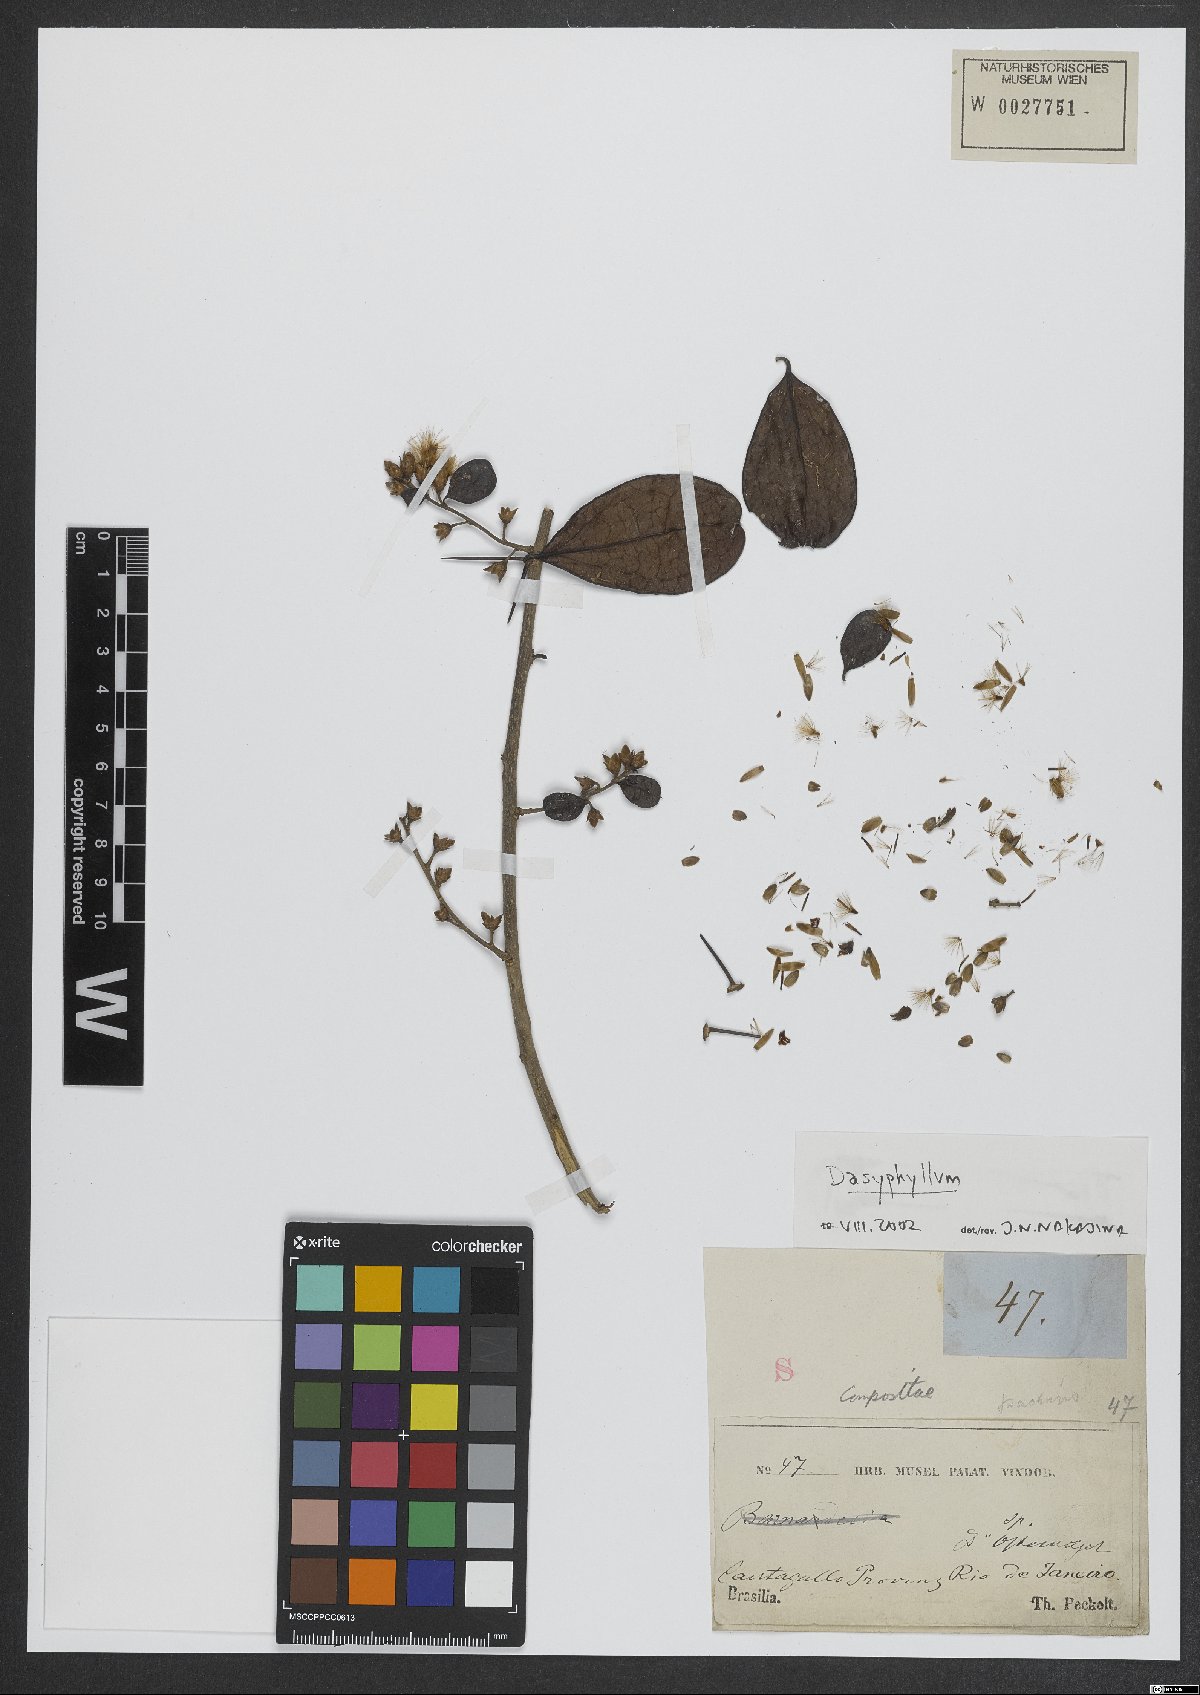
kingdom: Plantae
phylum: Tracheophyta
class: Magnoliopsida
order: Asterales
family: Asteraceae
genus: Dasyphyllum
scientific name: Dasyphyllum
